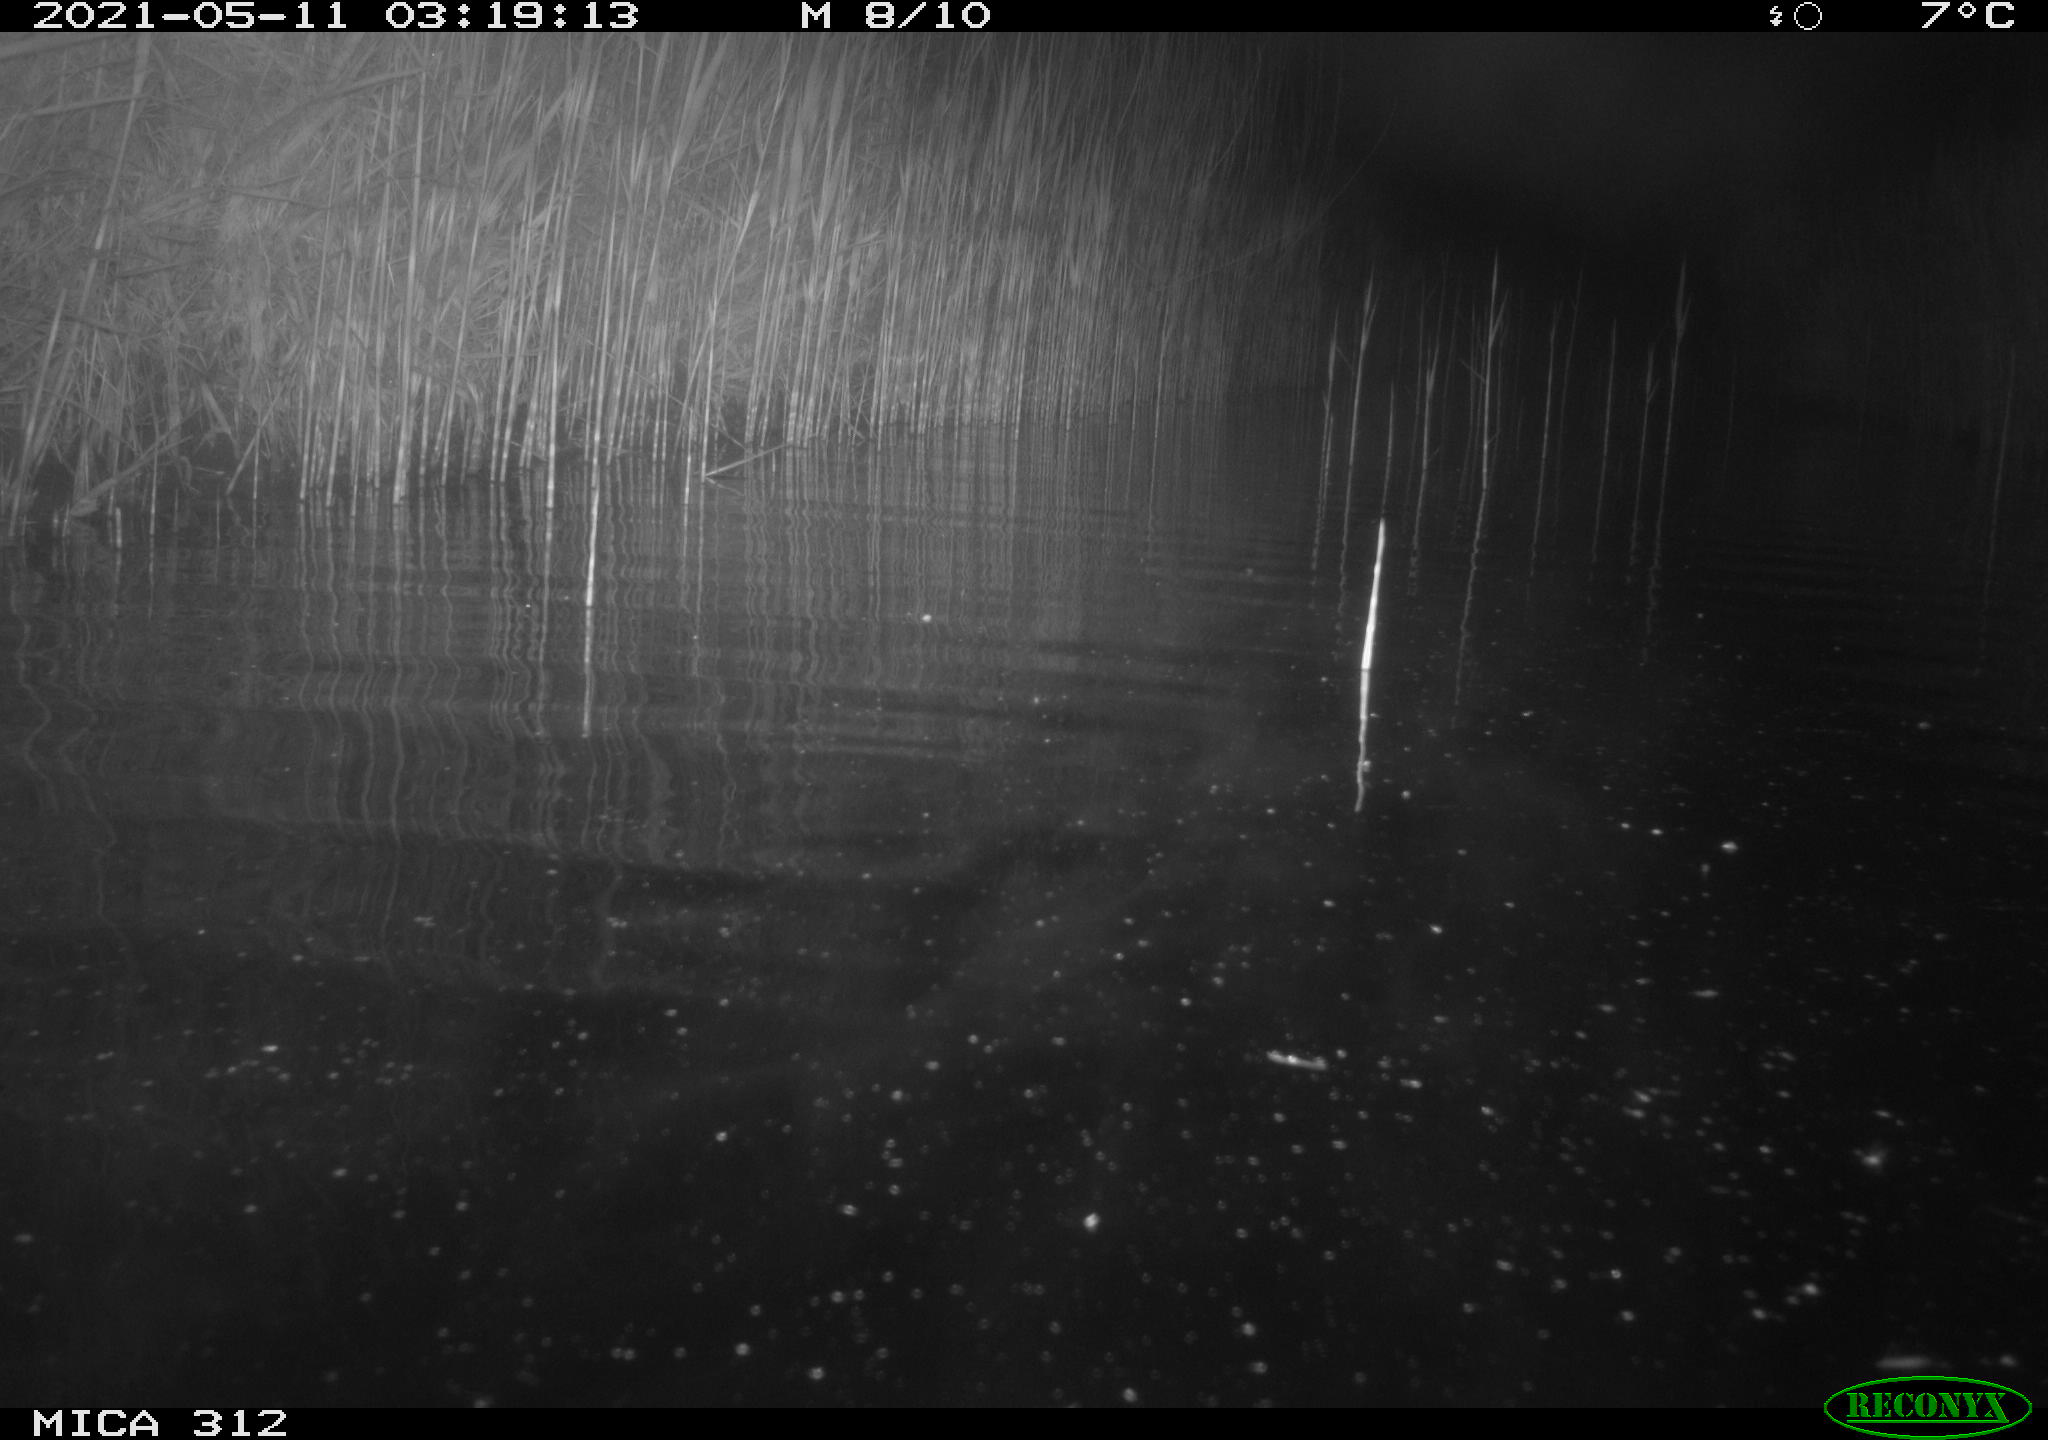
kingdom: Animalia
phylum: Chordata
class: Mammalia
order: Rodentia
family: Cricetidae
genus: Ondatra
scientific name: Ondatra zibethicus
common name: Muskrat
